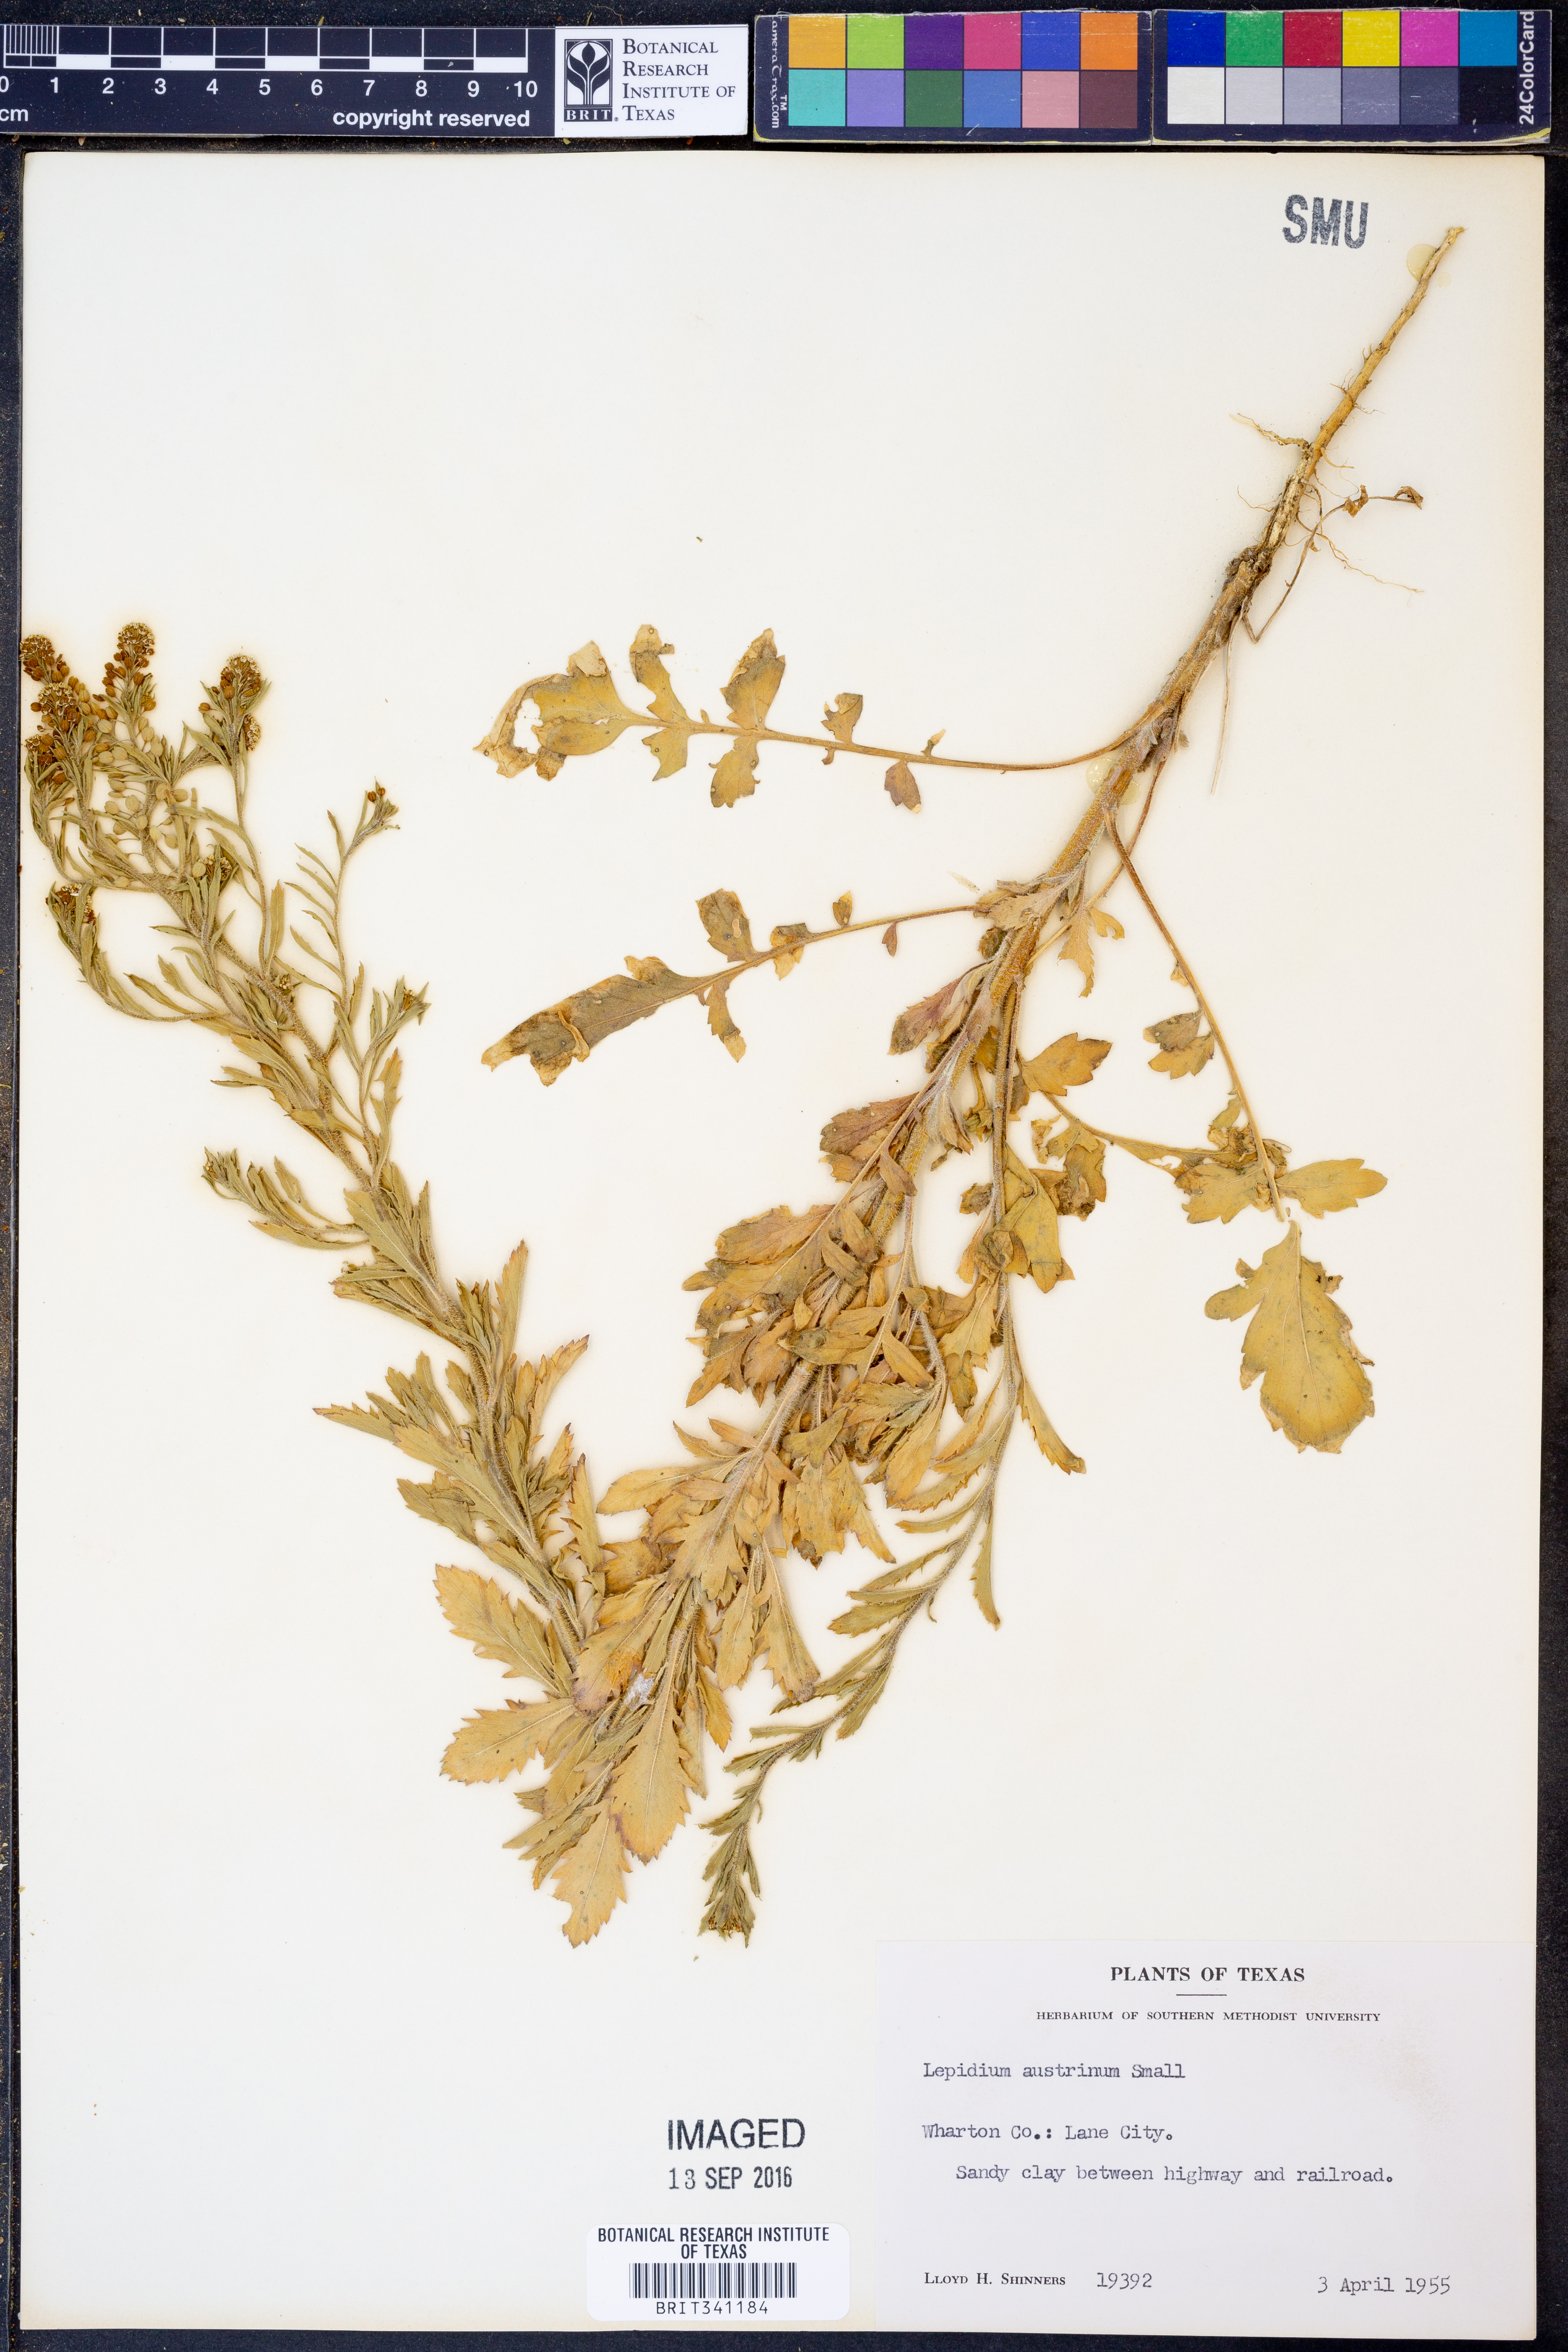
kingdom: Plantae
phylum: Tracheophyta
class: Magnoliopsida
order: Brassicales
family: Brassicaceae
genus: Lepidium
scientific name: Lepidium austrinum
